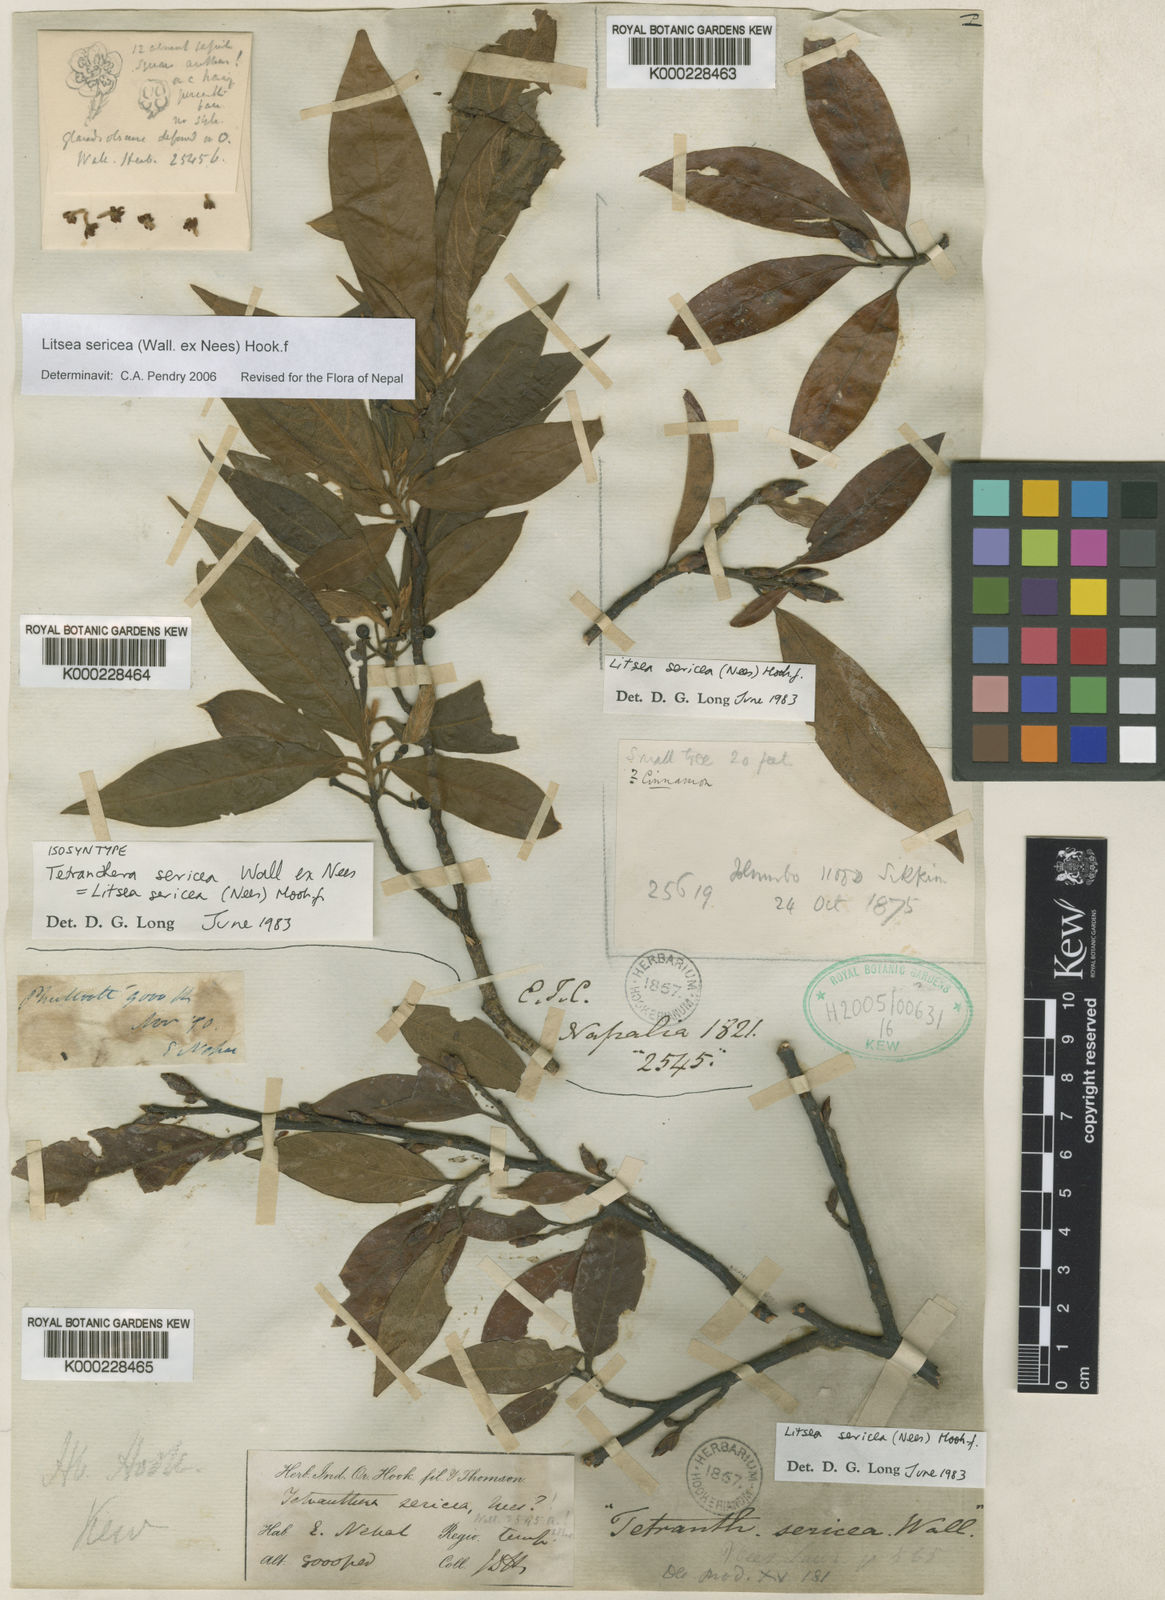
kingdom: Plantae
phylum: Tracheophyta
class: Magnoliopsida
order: Laurales
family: Lauraceae
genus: Litsea
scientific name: Litsea sericea
